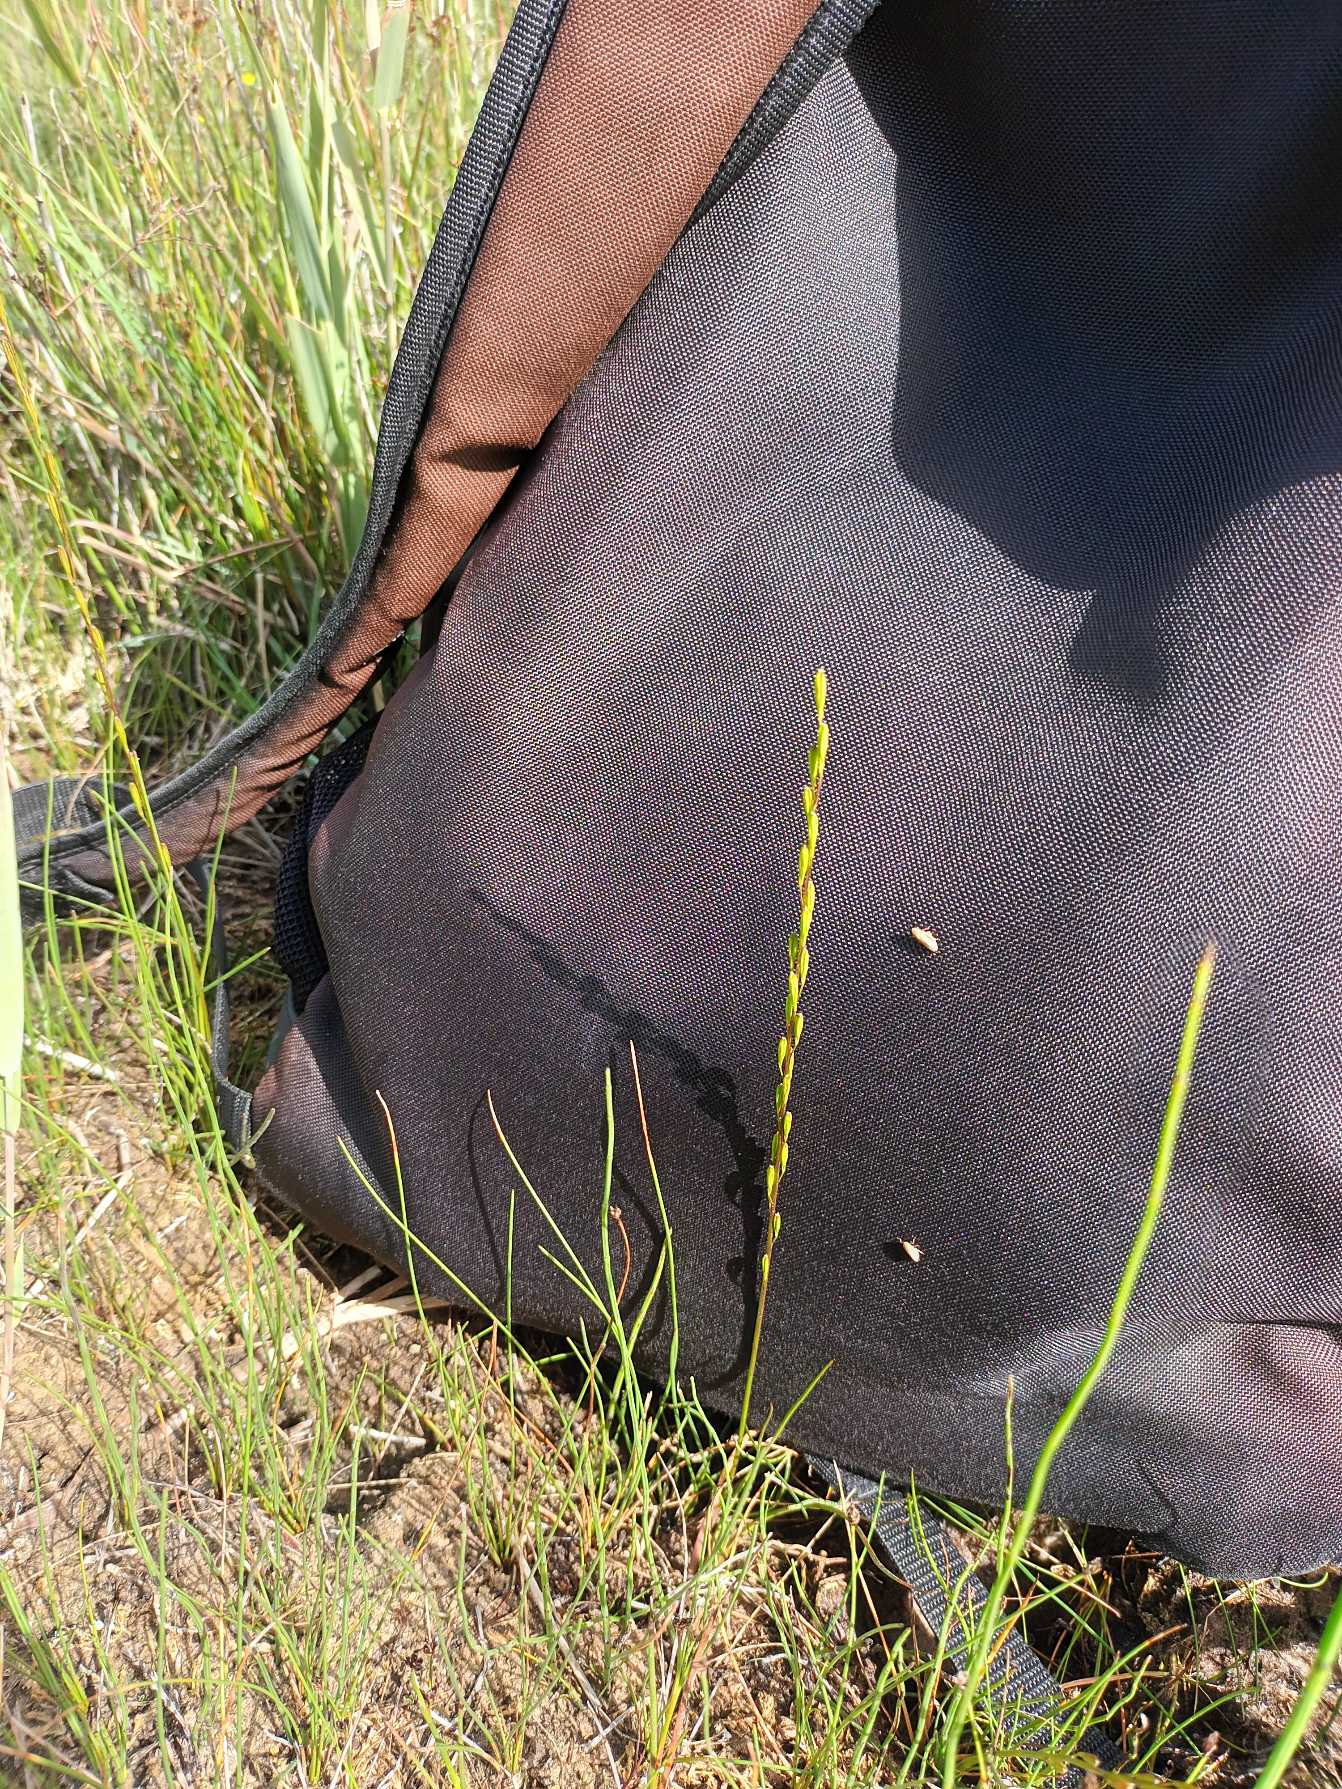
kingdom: Plantae
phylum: Tracheophyta
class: Liliopsida
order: Alismatales
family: Juncaginaceae
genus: Triglochin
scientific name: Triglochin palustris
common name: Kær-trehage
